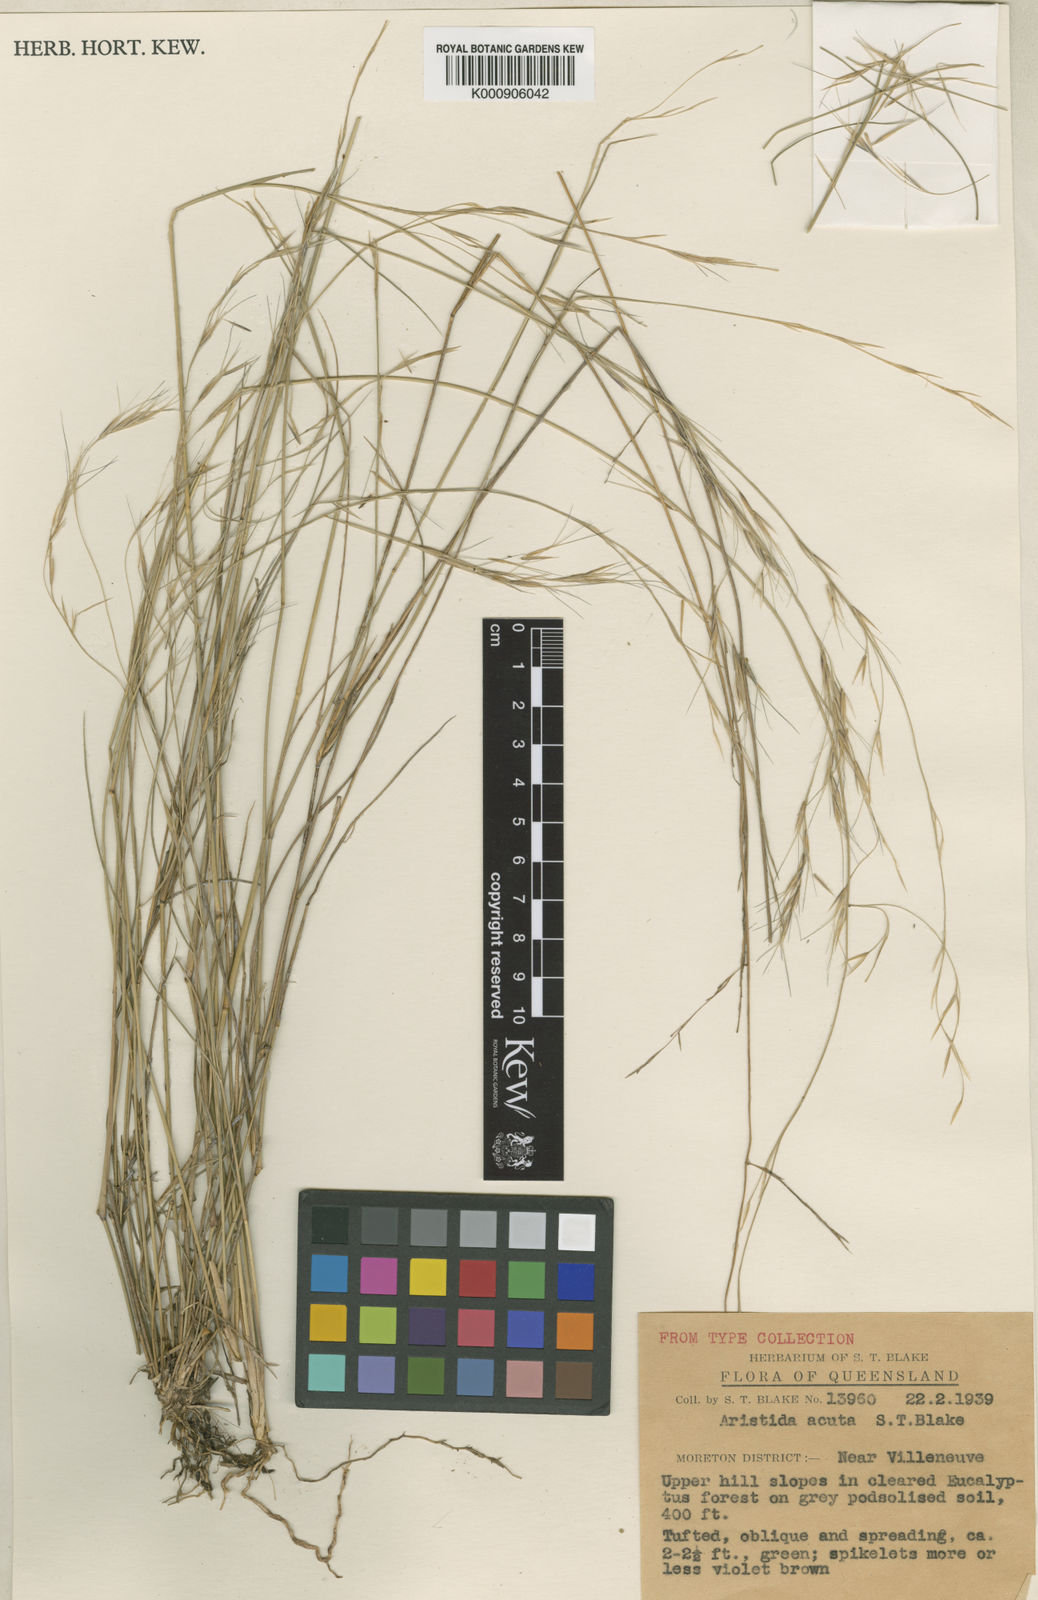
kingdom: Plantae
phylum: Tracheophyta
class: Liliopsida
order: Poales
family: Poaceae
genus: Aristida
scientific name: Aristida acuta
